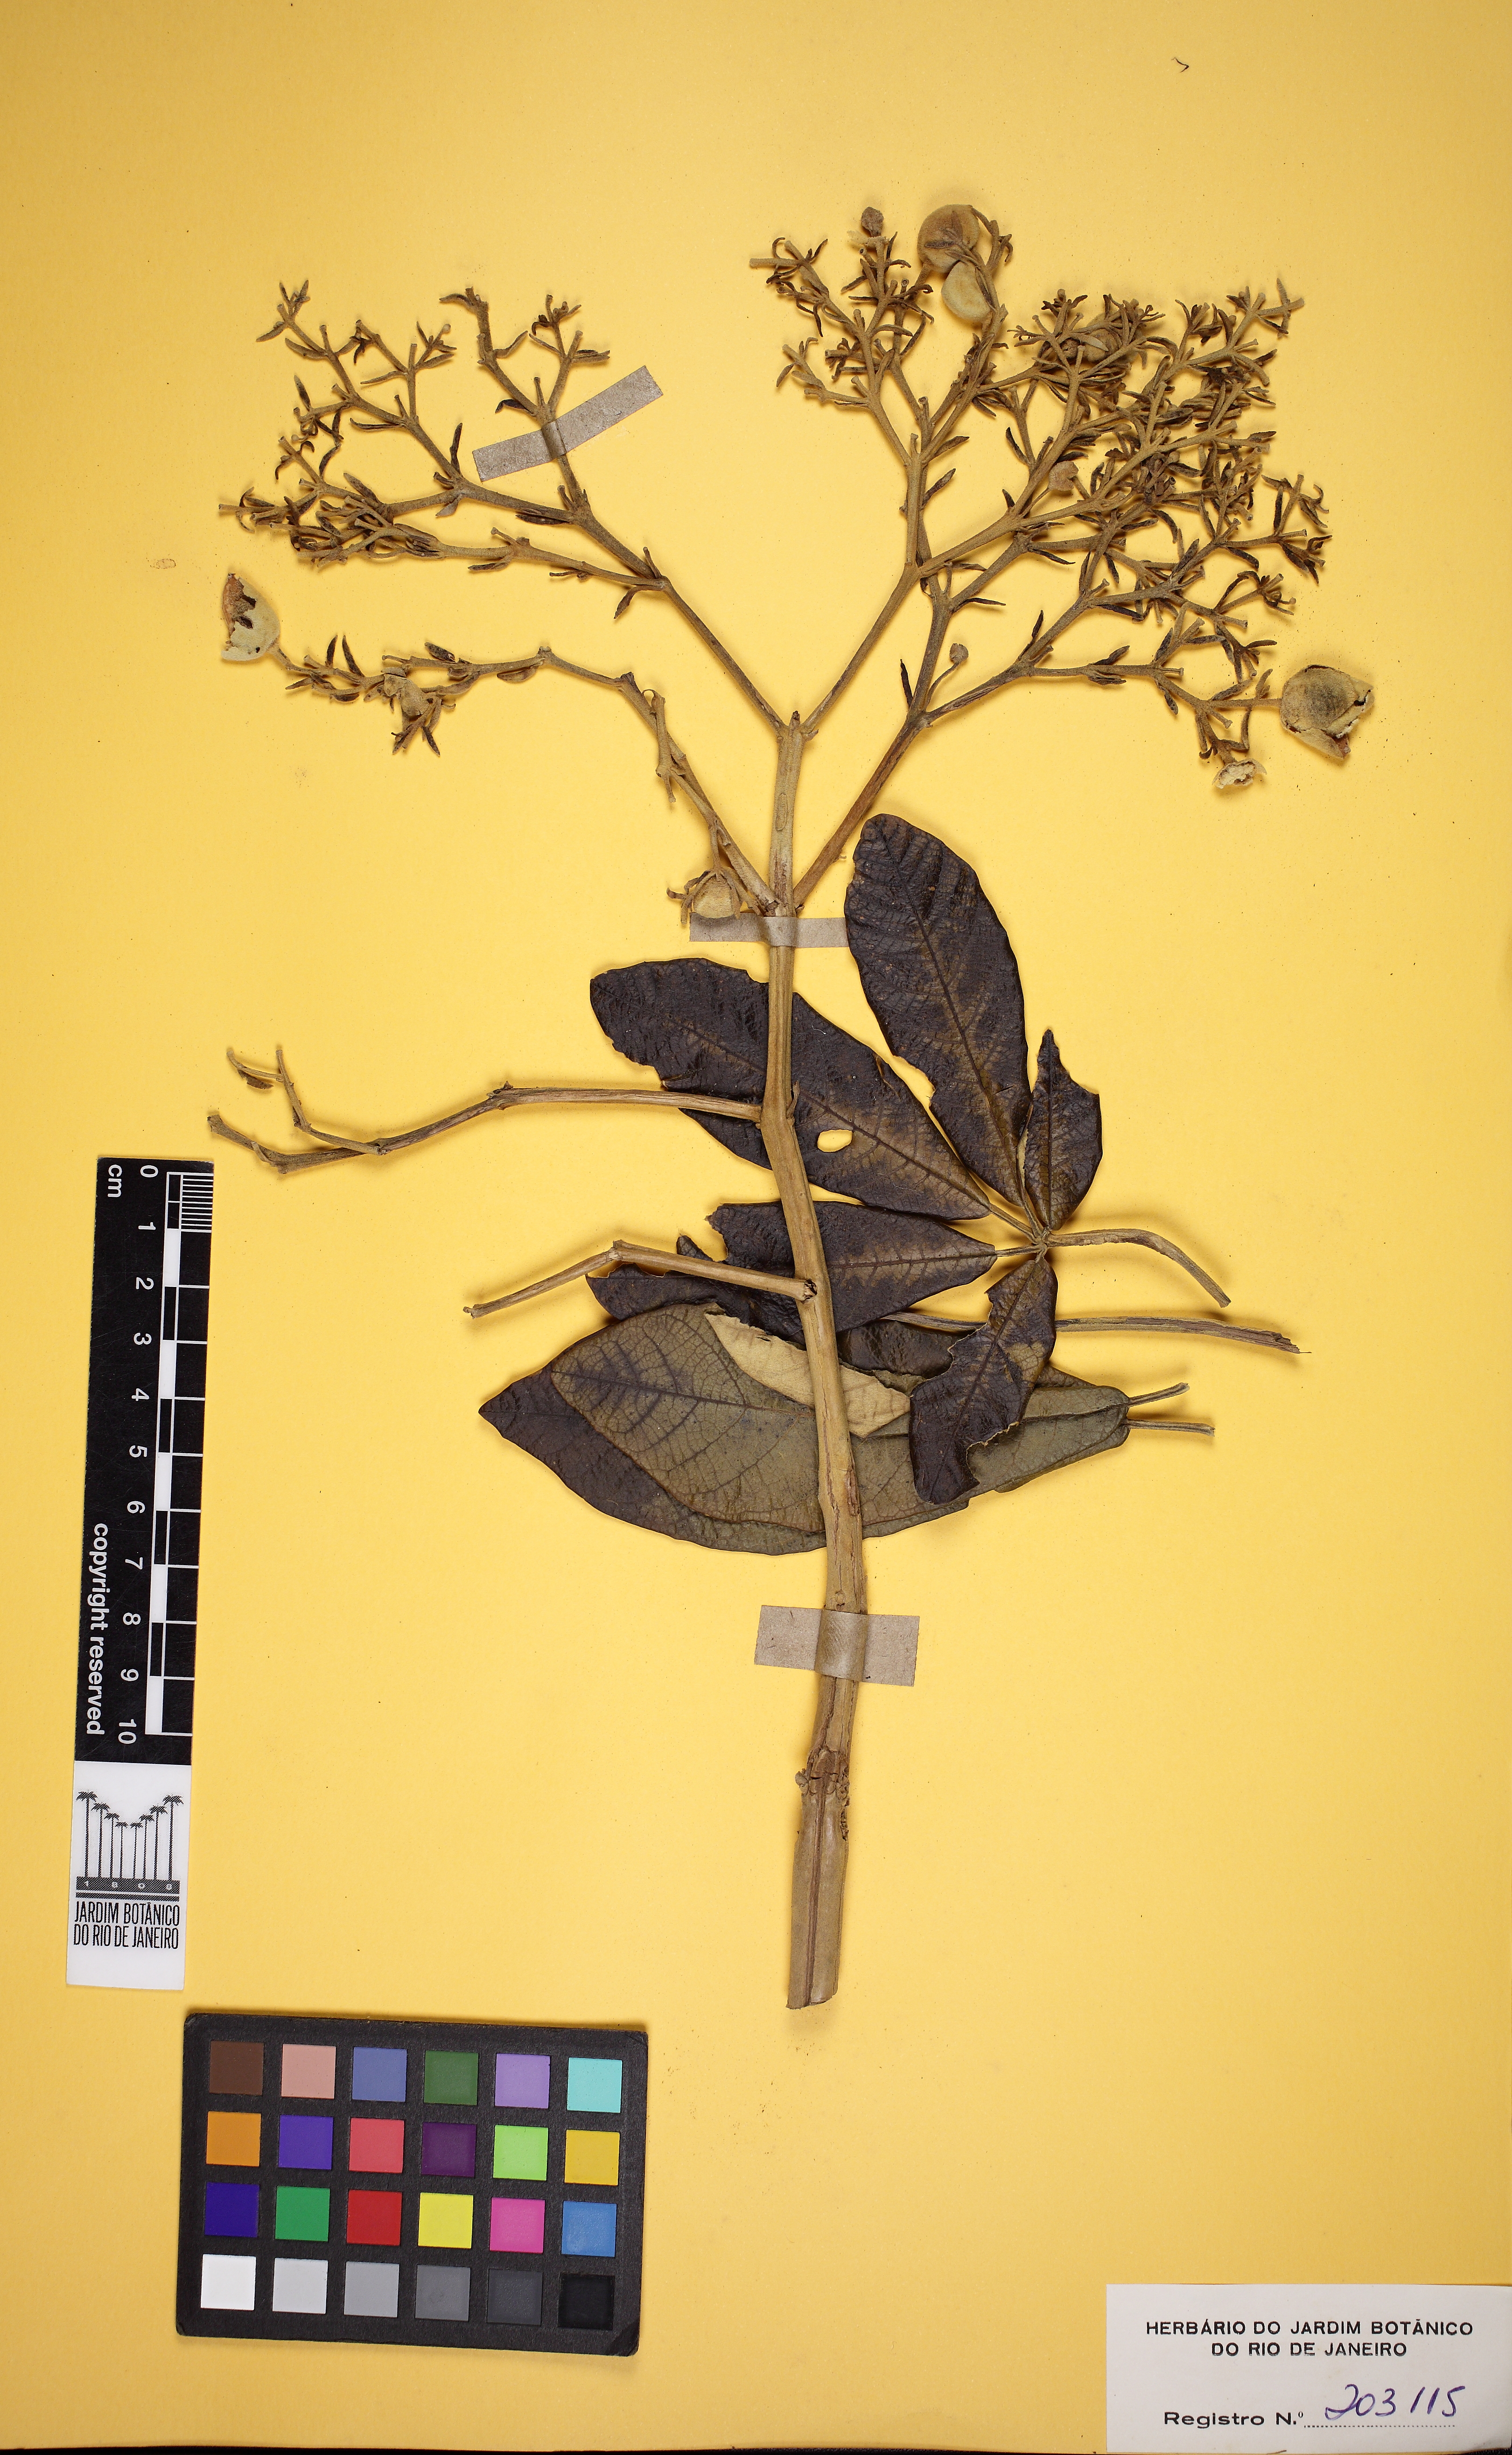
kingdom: Plantae
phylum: Tracheophyta
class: Magnoliopsida
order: Lamiales
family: Bignoniaceae
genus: Zeyheria
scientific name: Zeyheria montana
